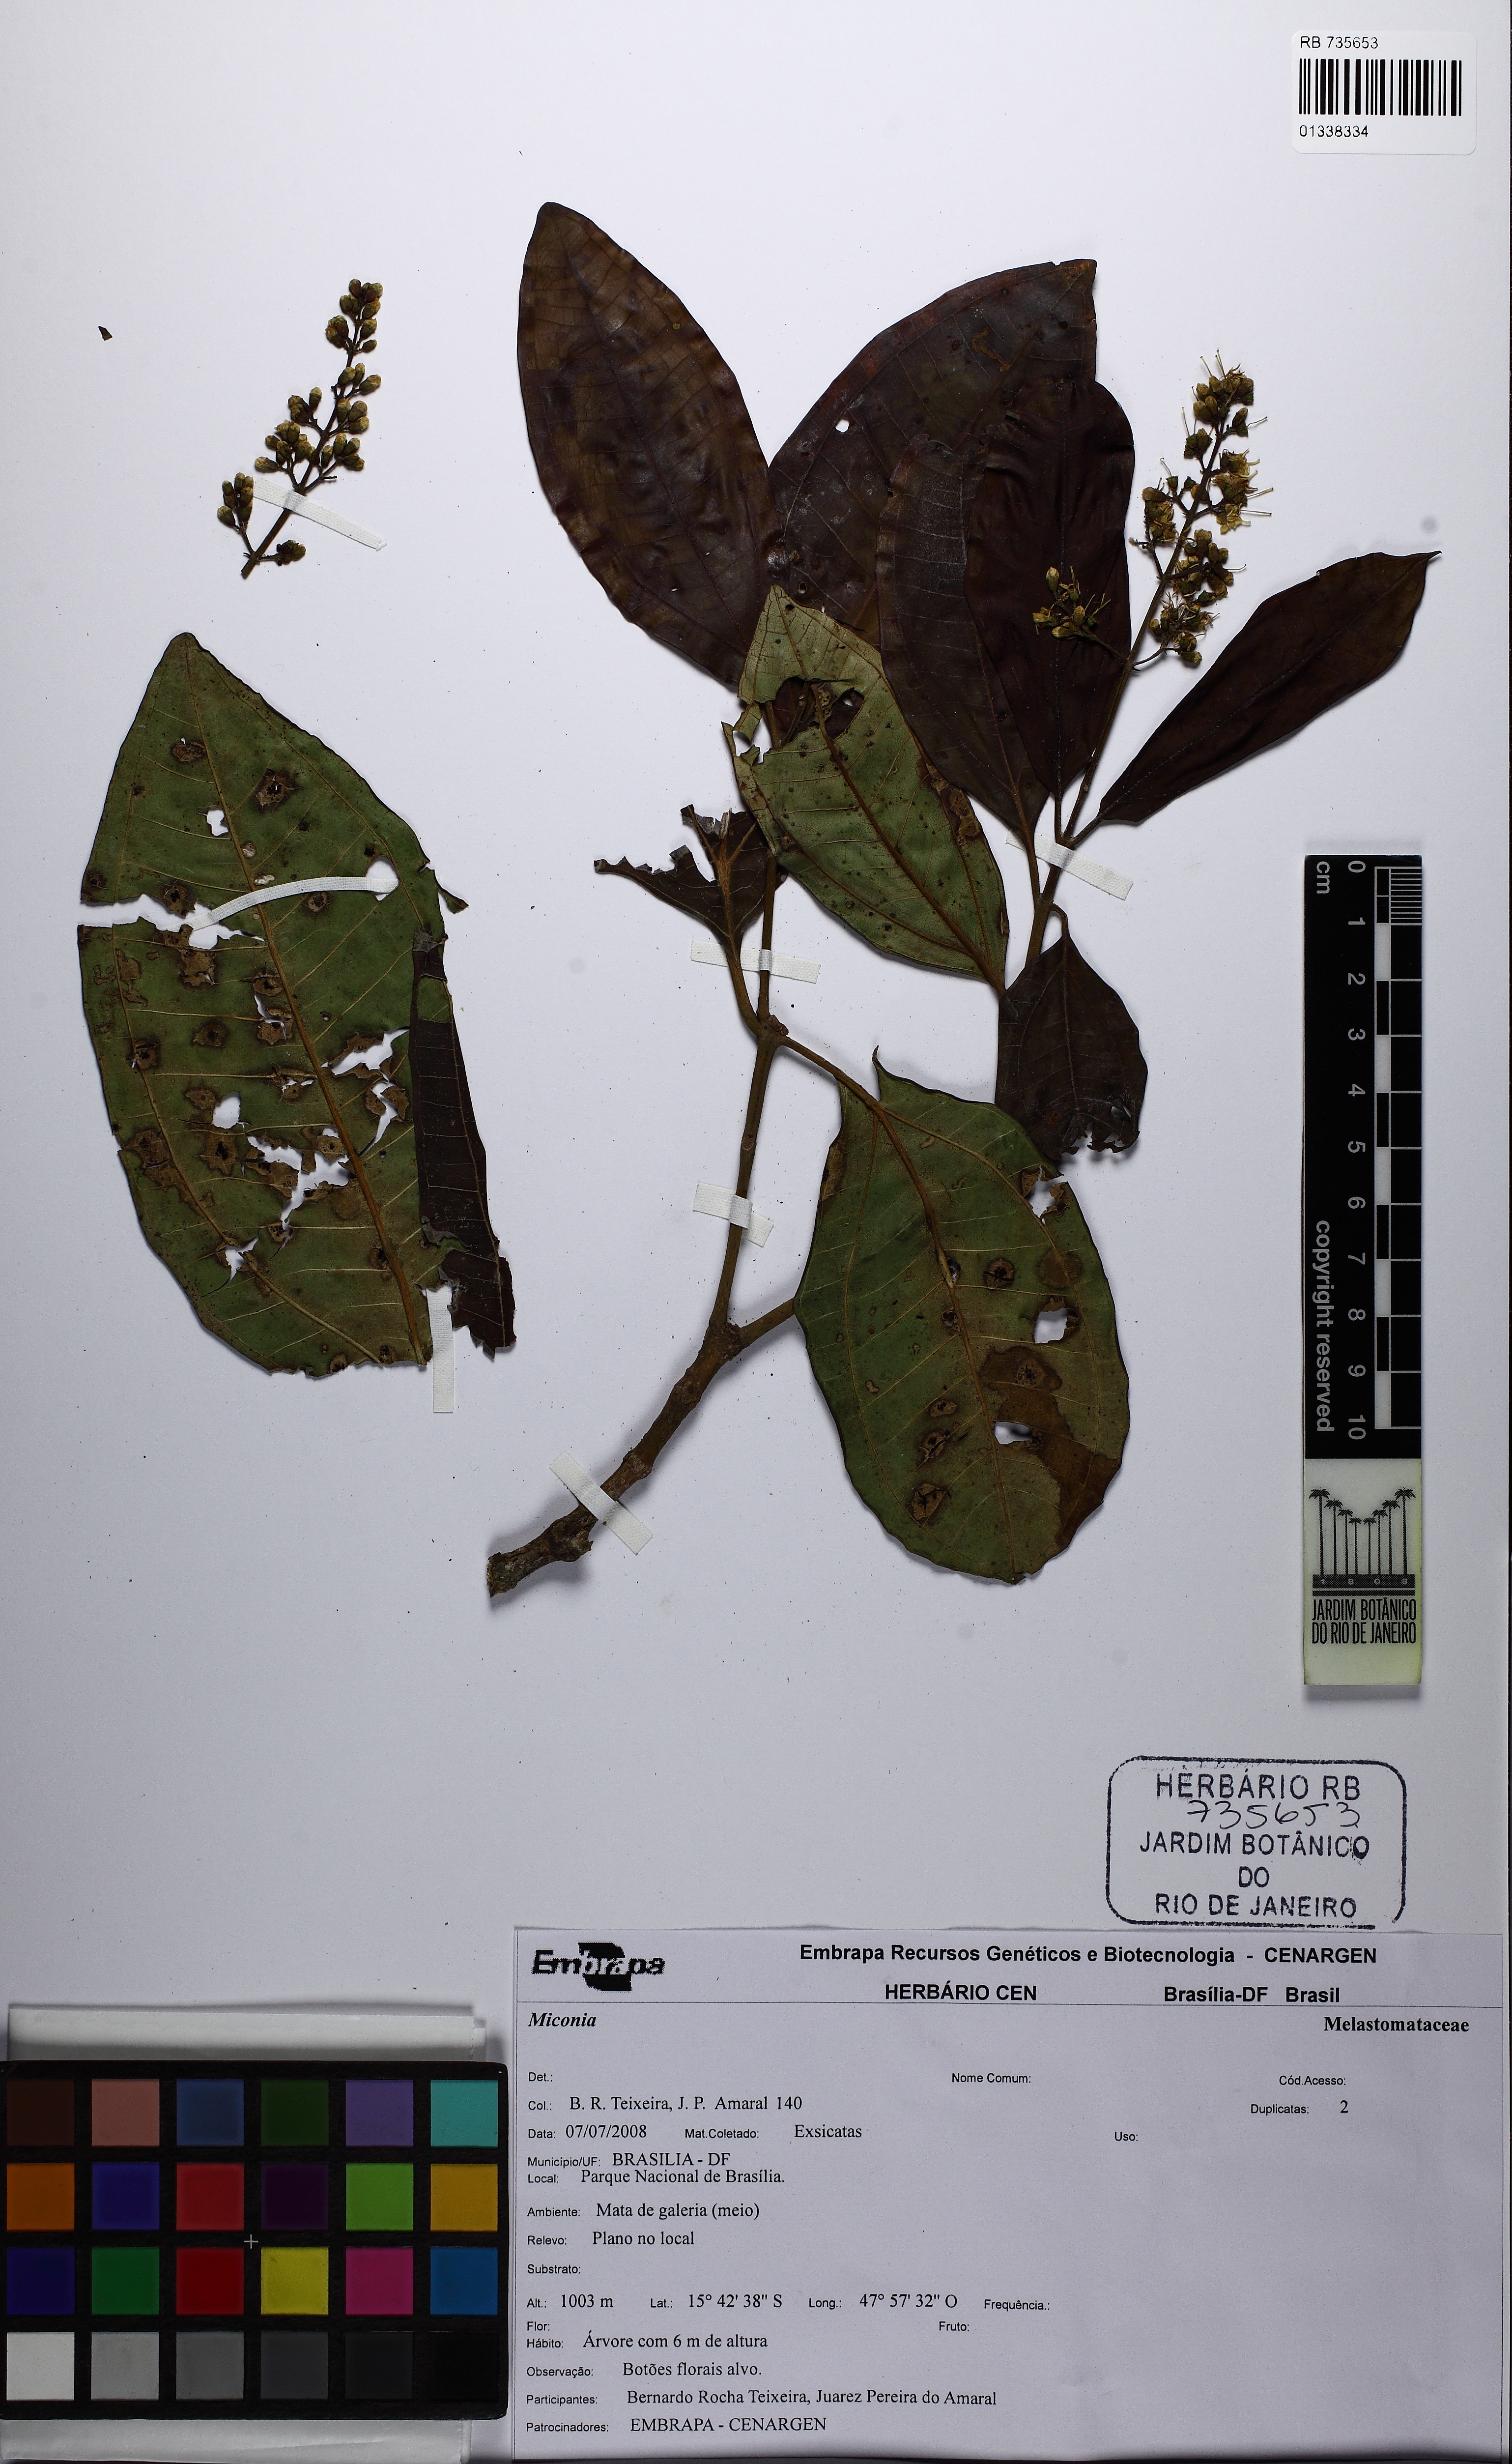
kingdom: Plantae
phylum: Tracheophyta
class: Magnoliopsida
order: Myrtales
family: Melastomataceae
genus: Miconia
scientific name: Miconia
